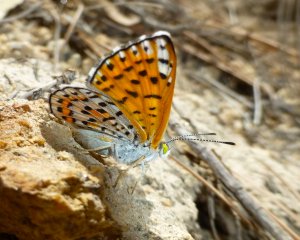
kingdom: Animalia
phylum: Arthropoda
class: Insecta
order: Lepidoptera
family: Riodinidae
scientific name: Riodinidae
